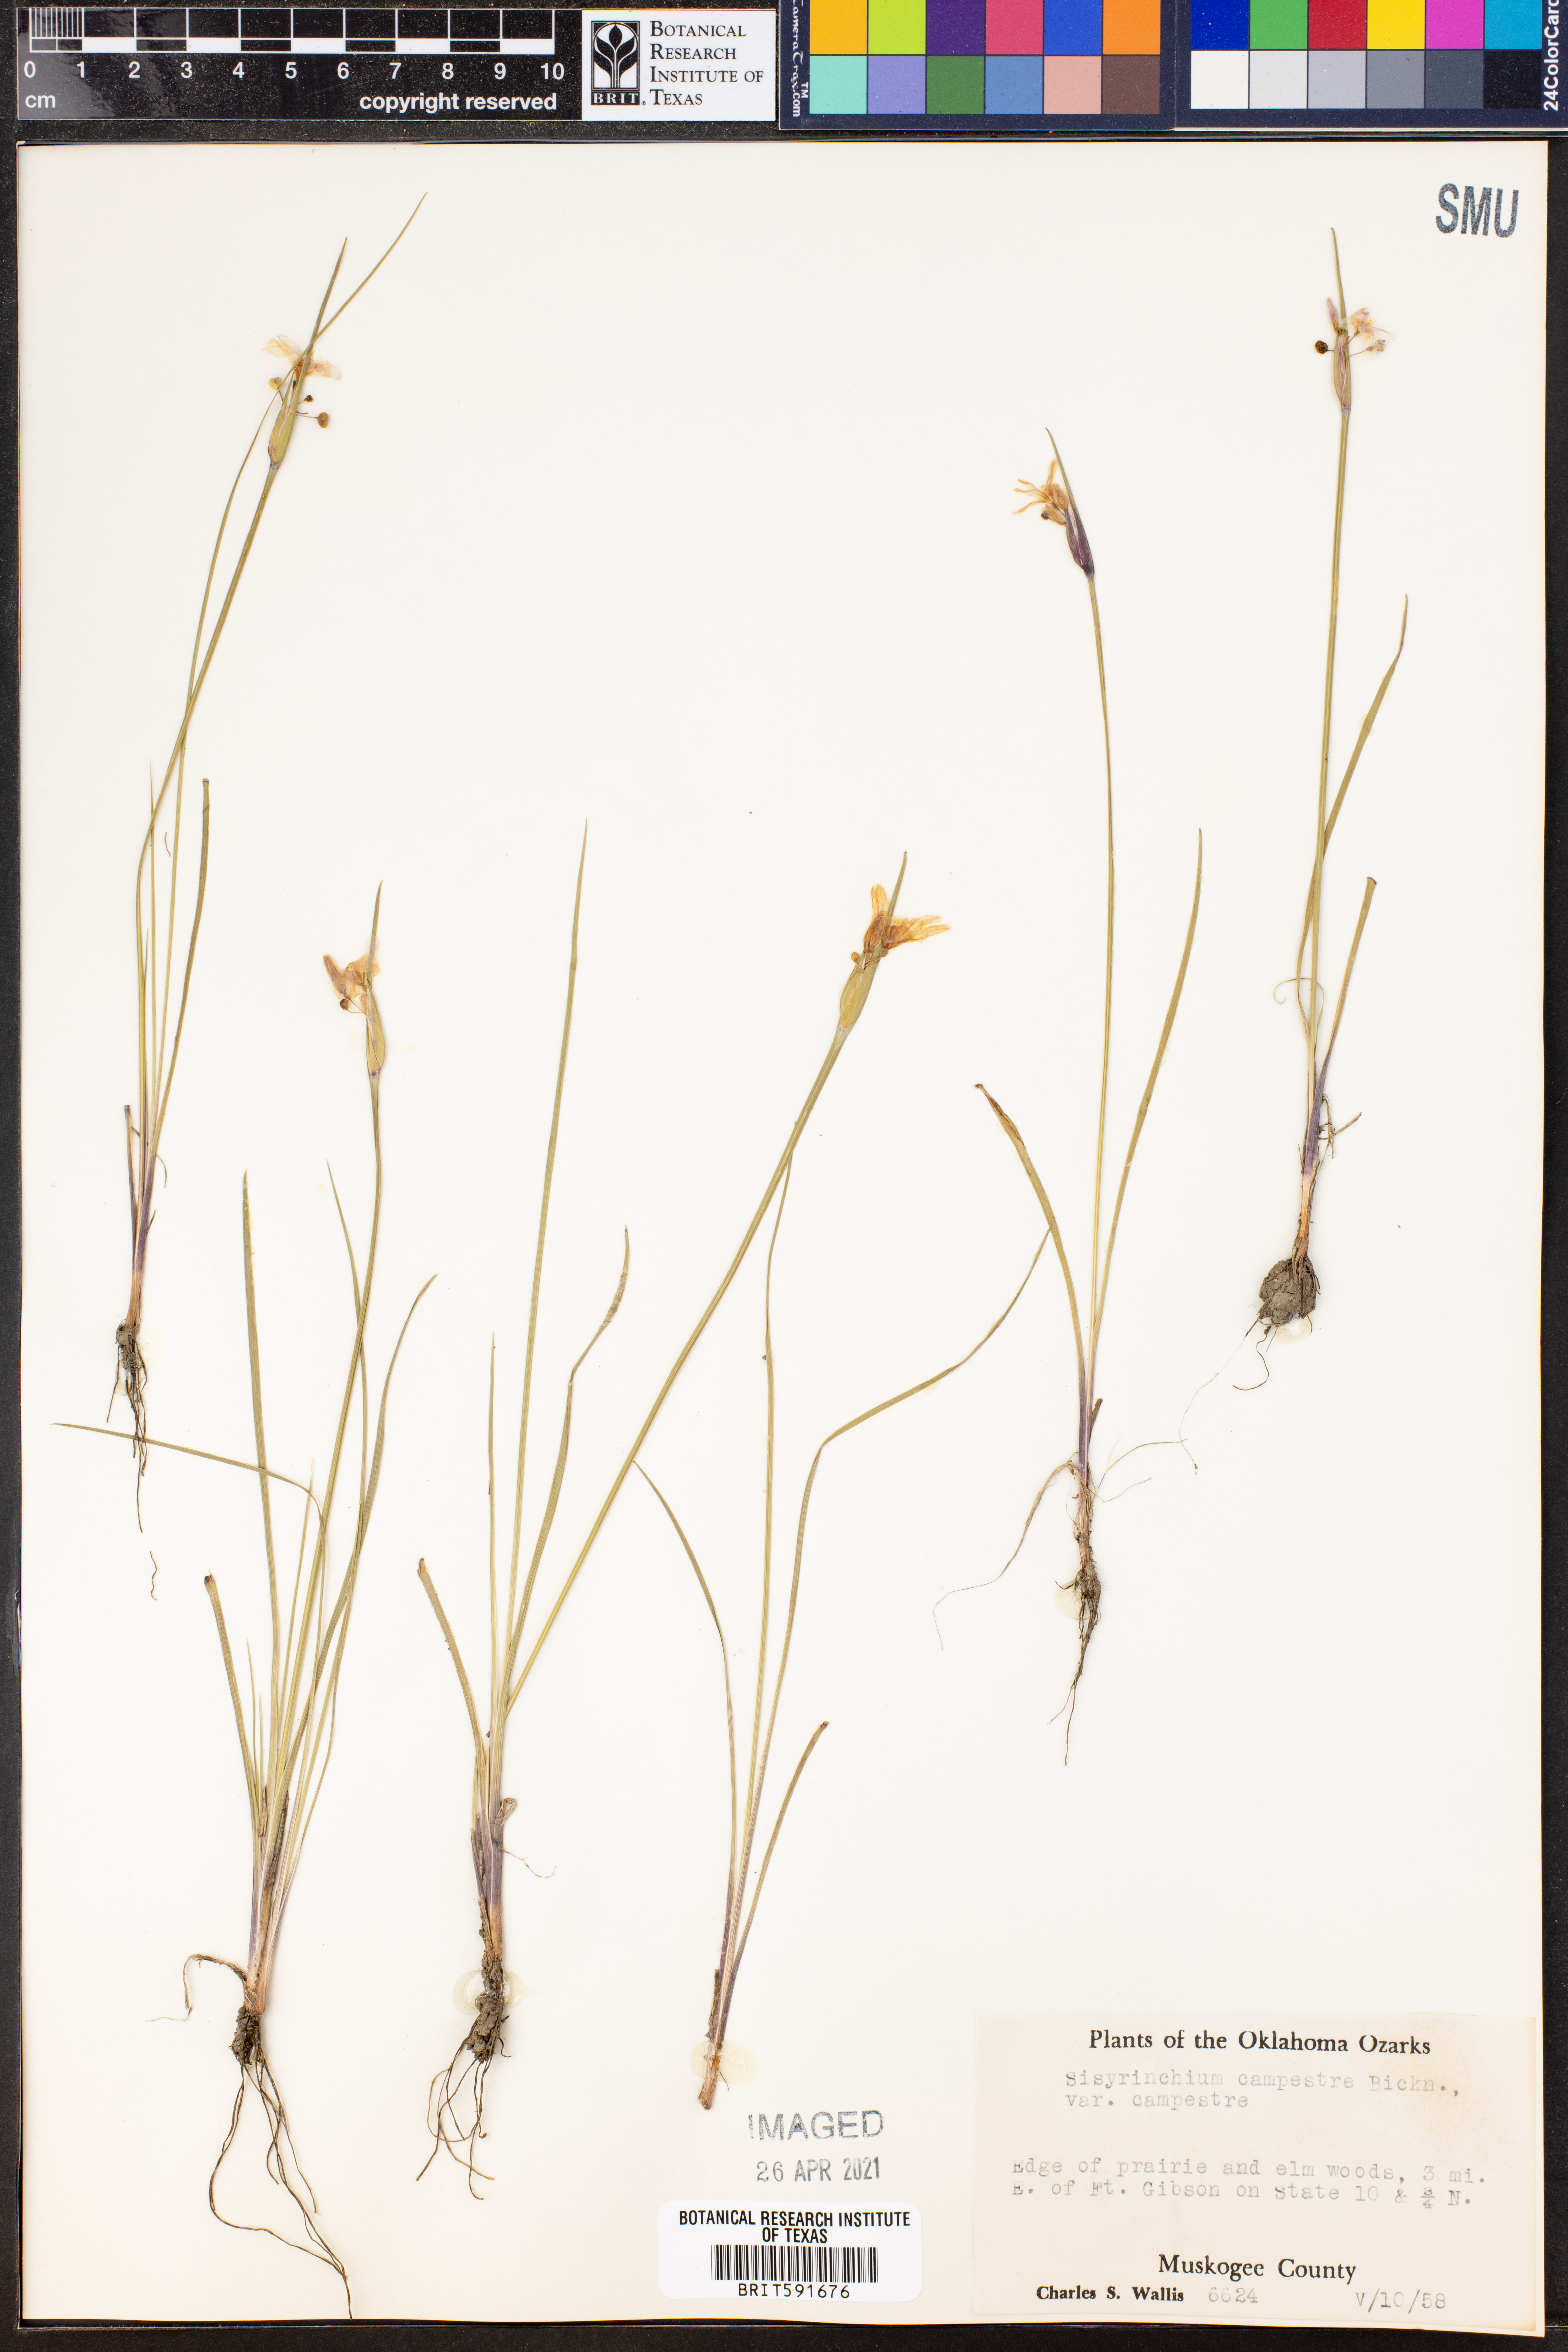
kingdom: Plantae
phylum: Tracheophyta
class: Liliopsida
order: Asparagales
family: Iridaceae
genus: Sisyrinchium
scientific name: Sisyrinchium campestre
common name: Prairie blue-eyed-grass
